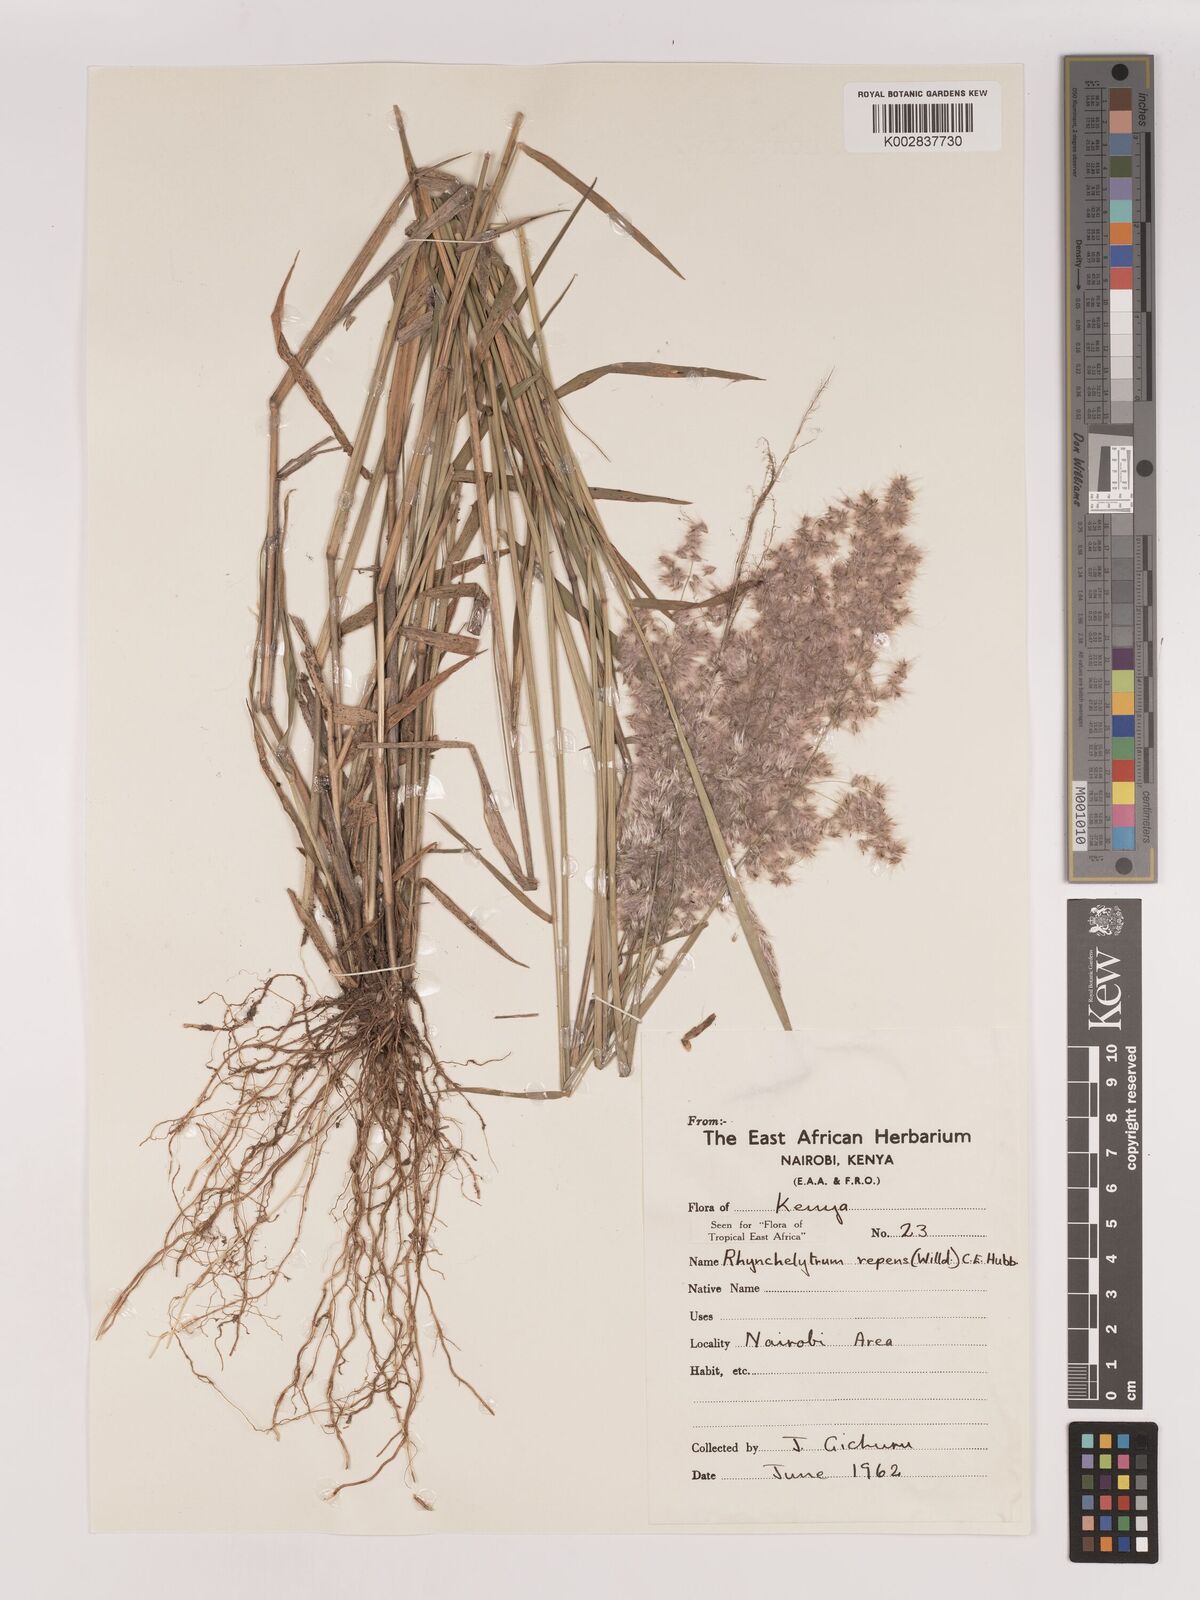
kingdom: Plantae
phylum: Tracheophyta
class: Liliopsida
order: Poales
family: Poaceae
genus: Melinis
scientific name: Melinis repens
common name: Rose natal grass
